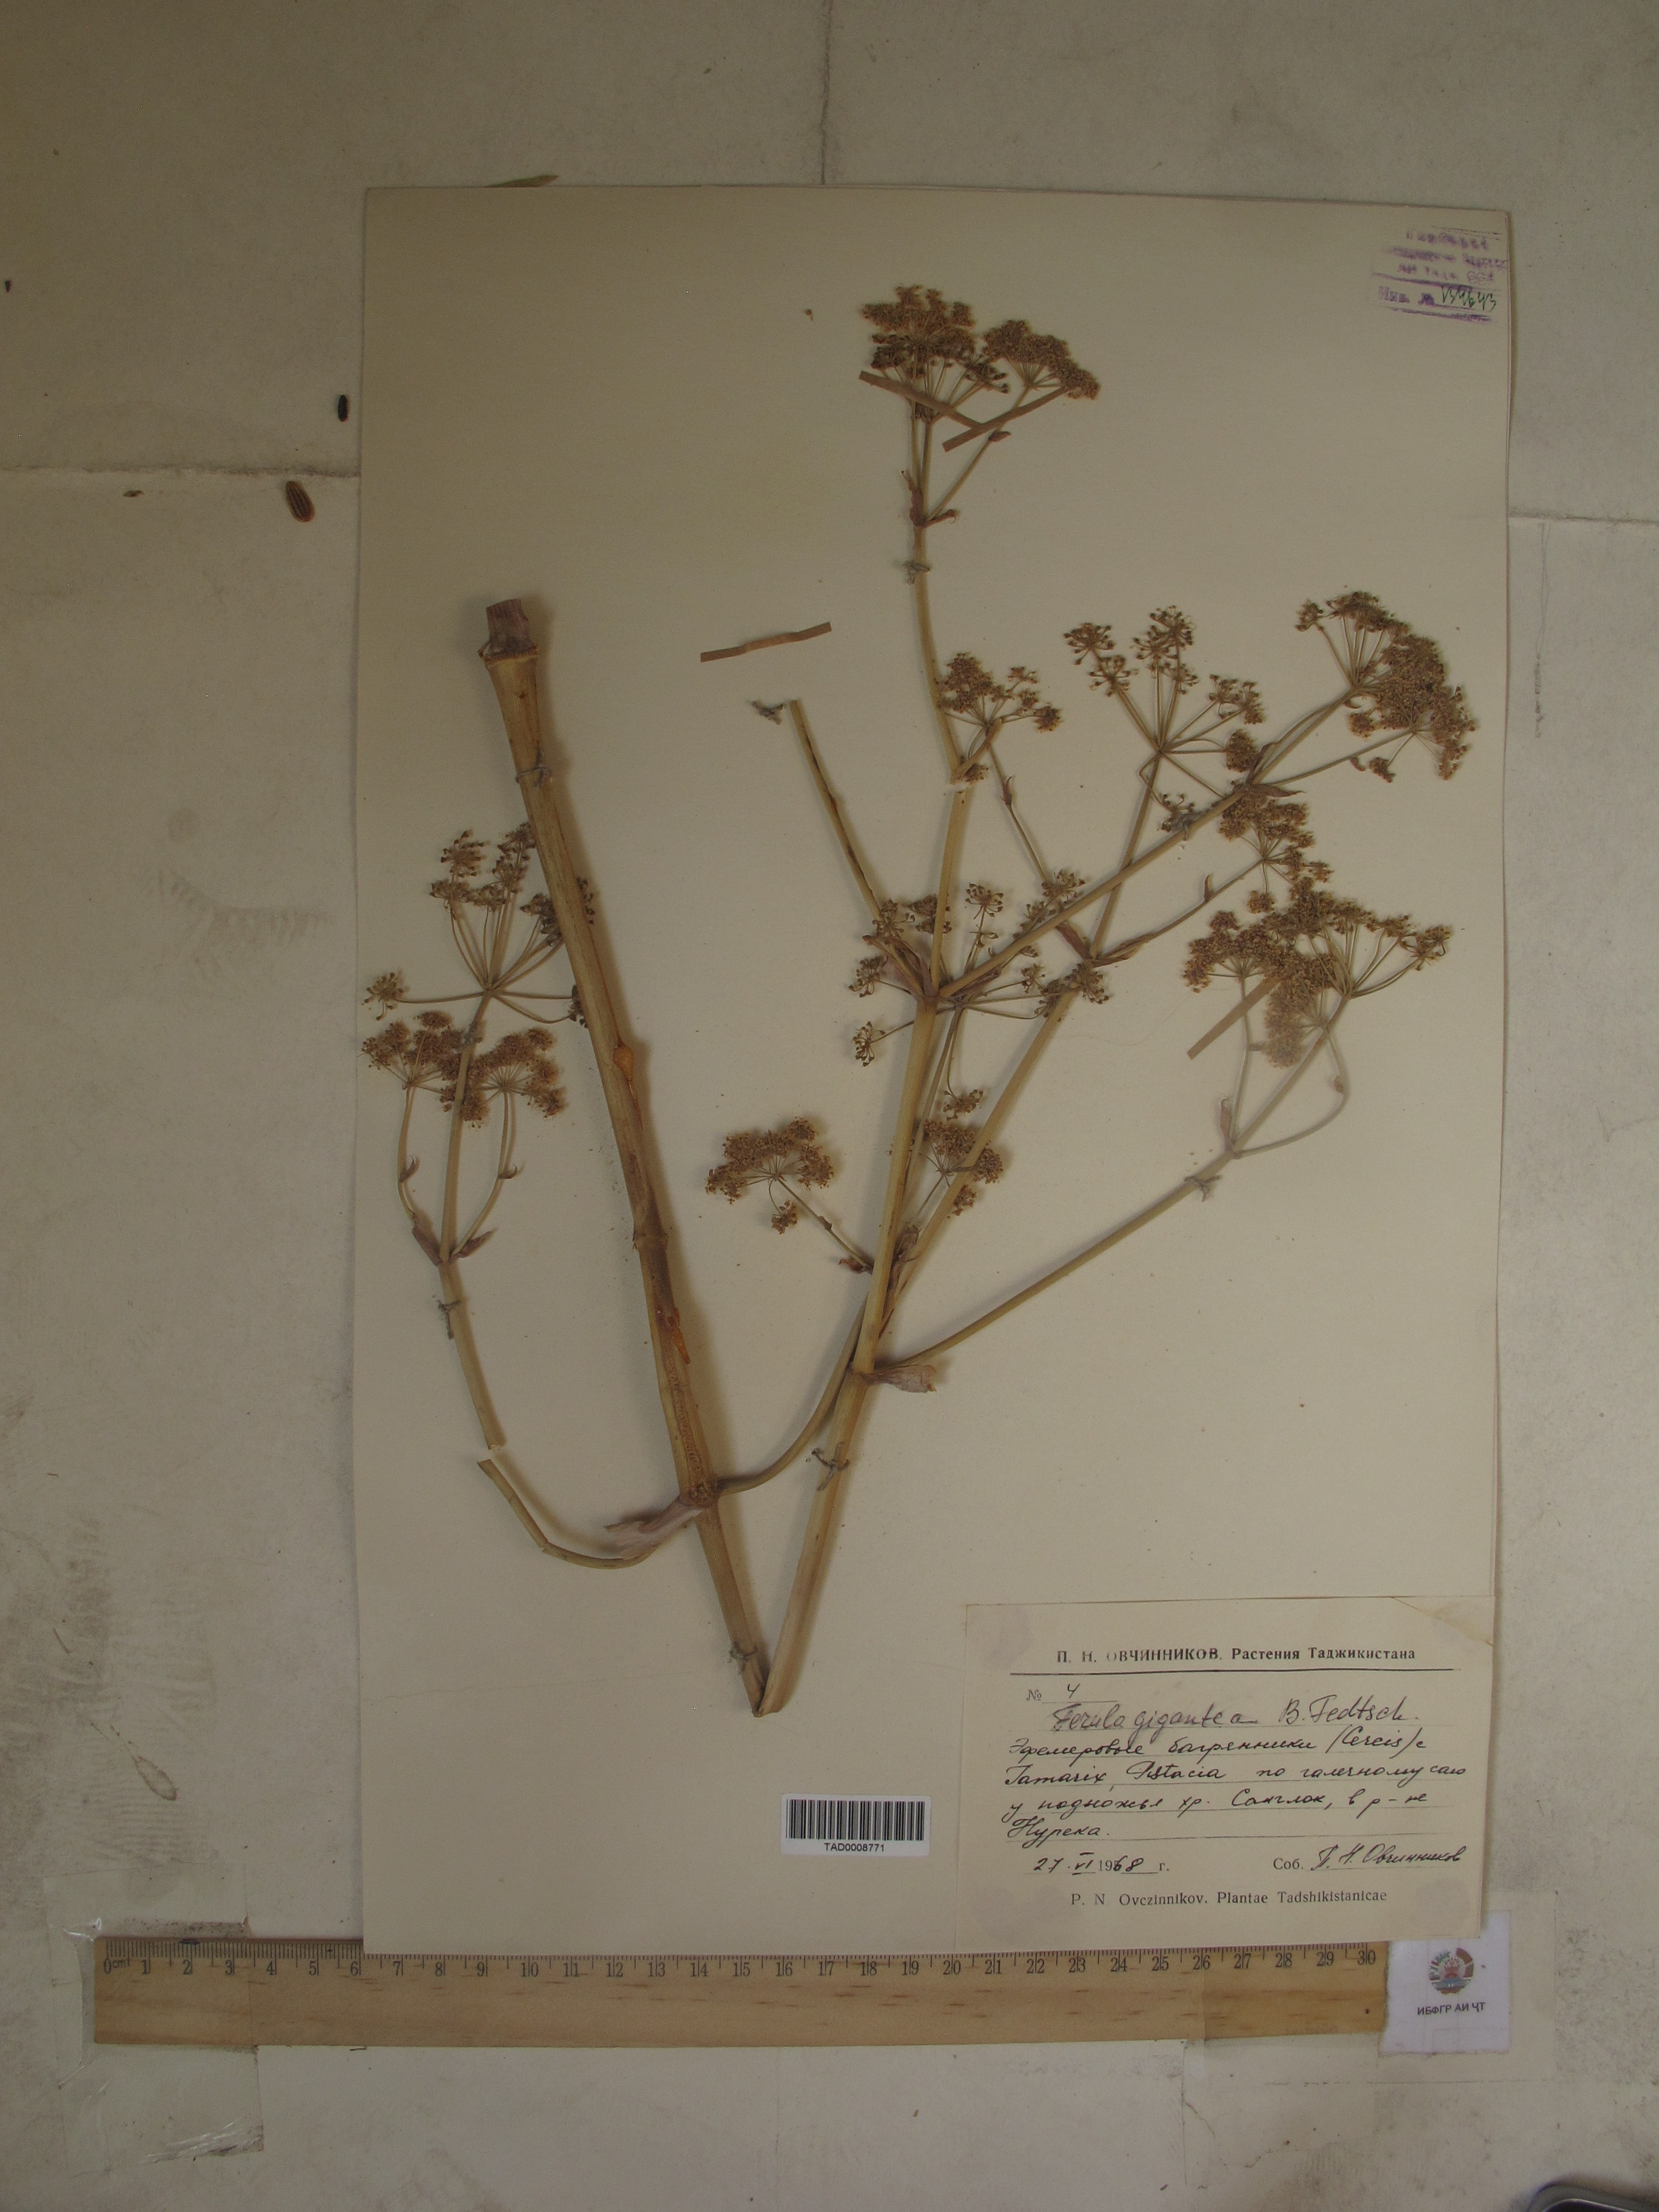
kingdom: Plantae
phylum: Tracheophyta
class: Magnoliopsida
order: Apiales
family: Apiaceae
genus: Ferula
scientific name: Ferula gigantea
